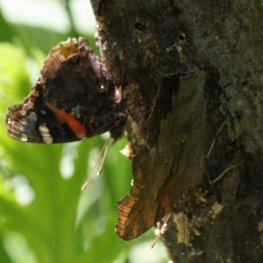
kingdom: Animalia
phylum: Arthropoda
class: Insecta
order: Lepidoptera
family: Nymphalidae
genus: Vanessa
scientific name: Vanessa atalanta
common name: Red Admiral
